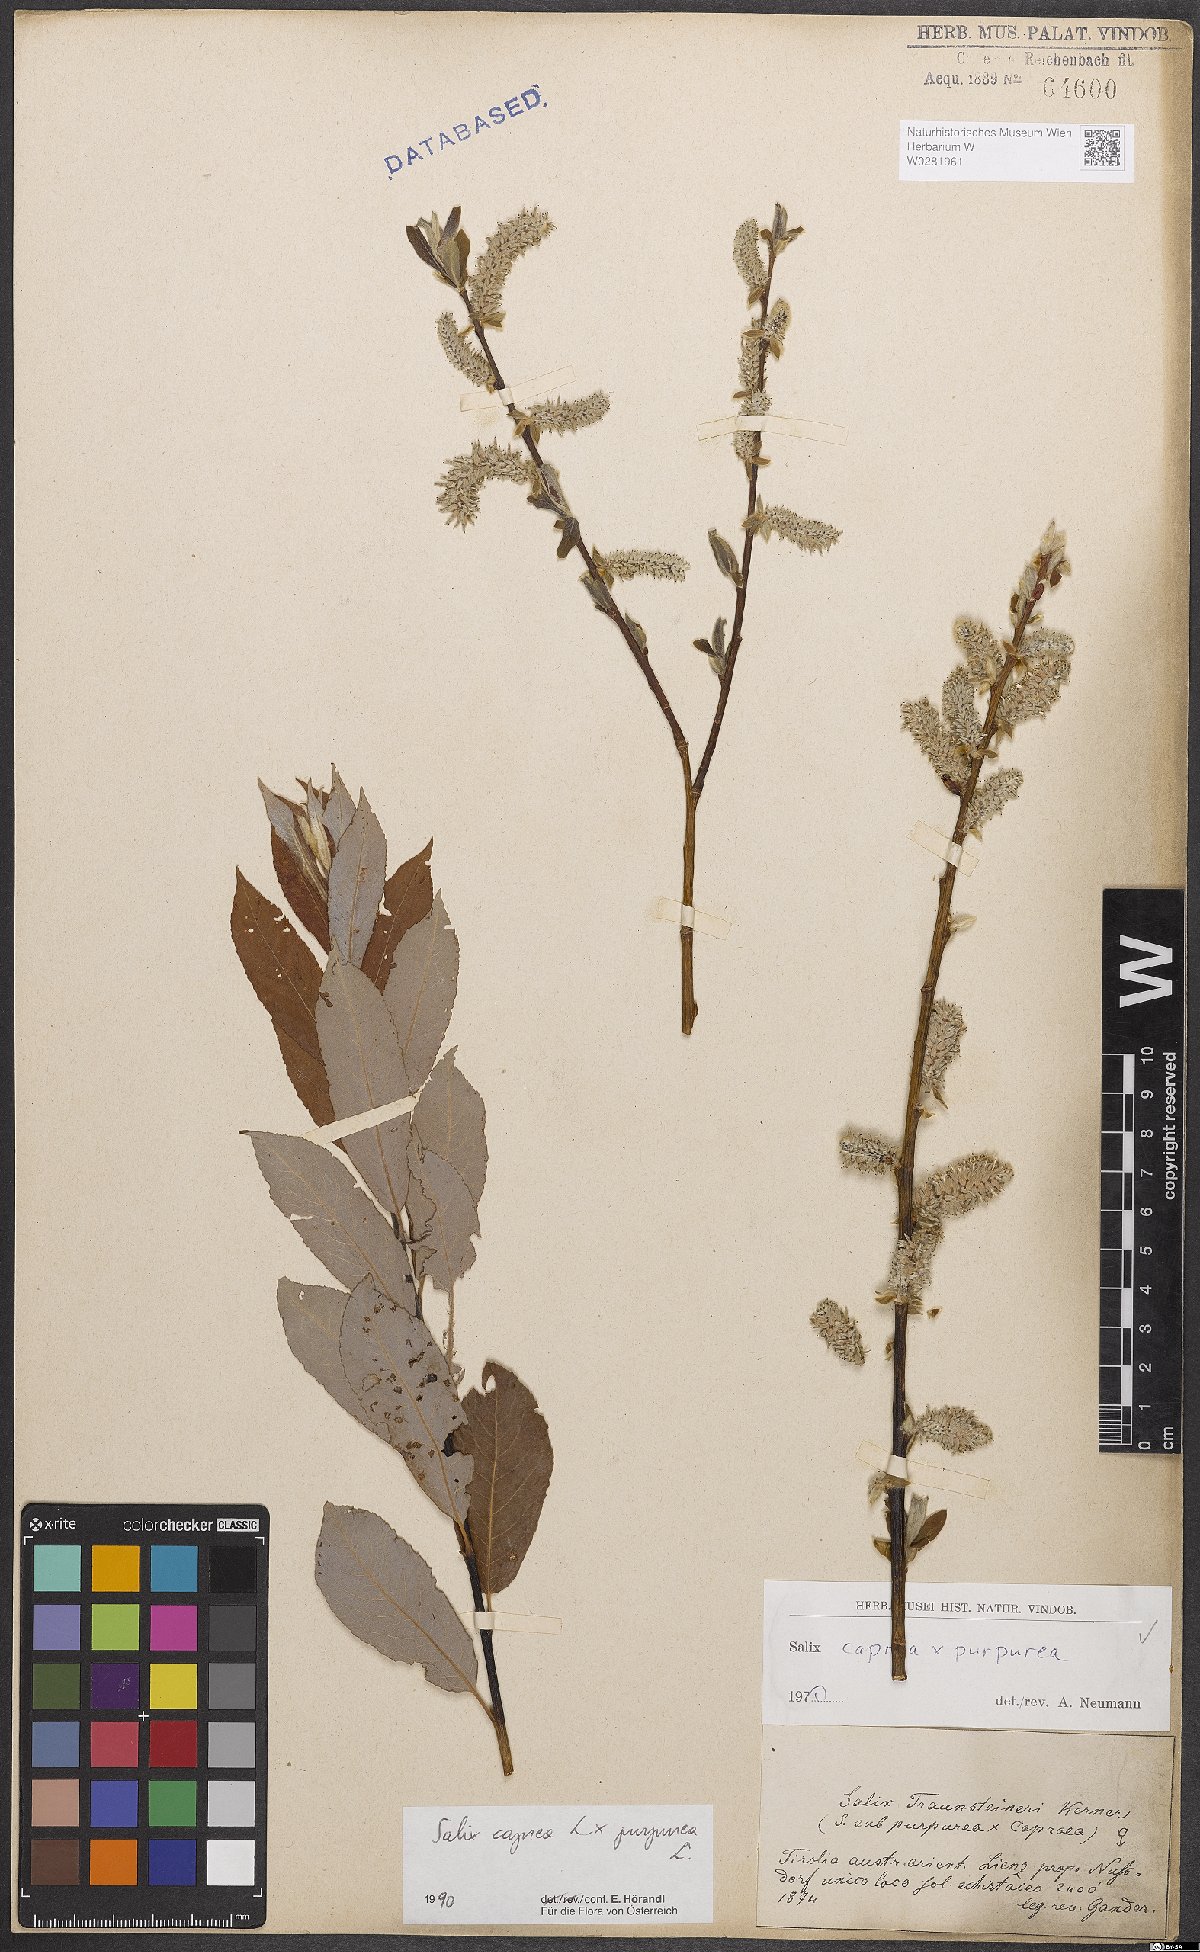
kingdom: Plantae
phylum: Tracheophyta
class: Magnoliopsida
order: Malpighiales
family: Salicaceae
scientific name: Salicaceae
